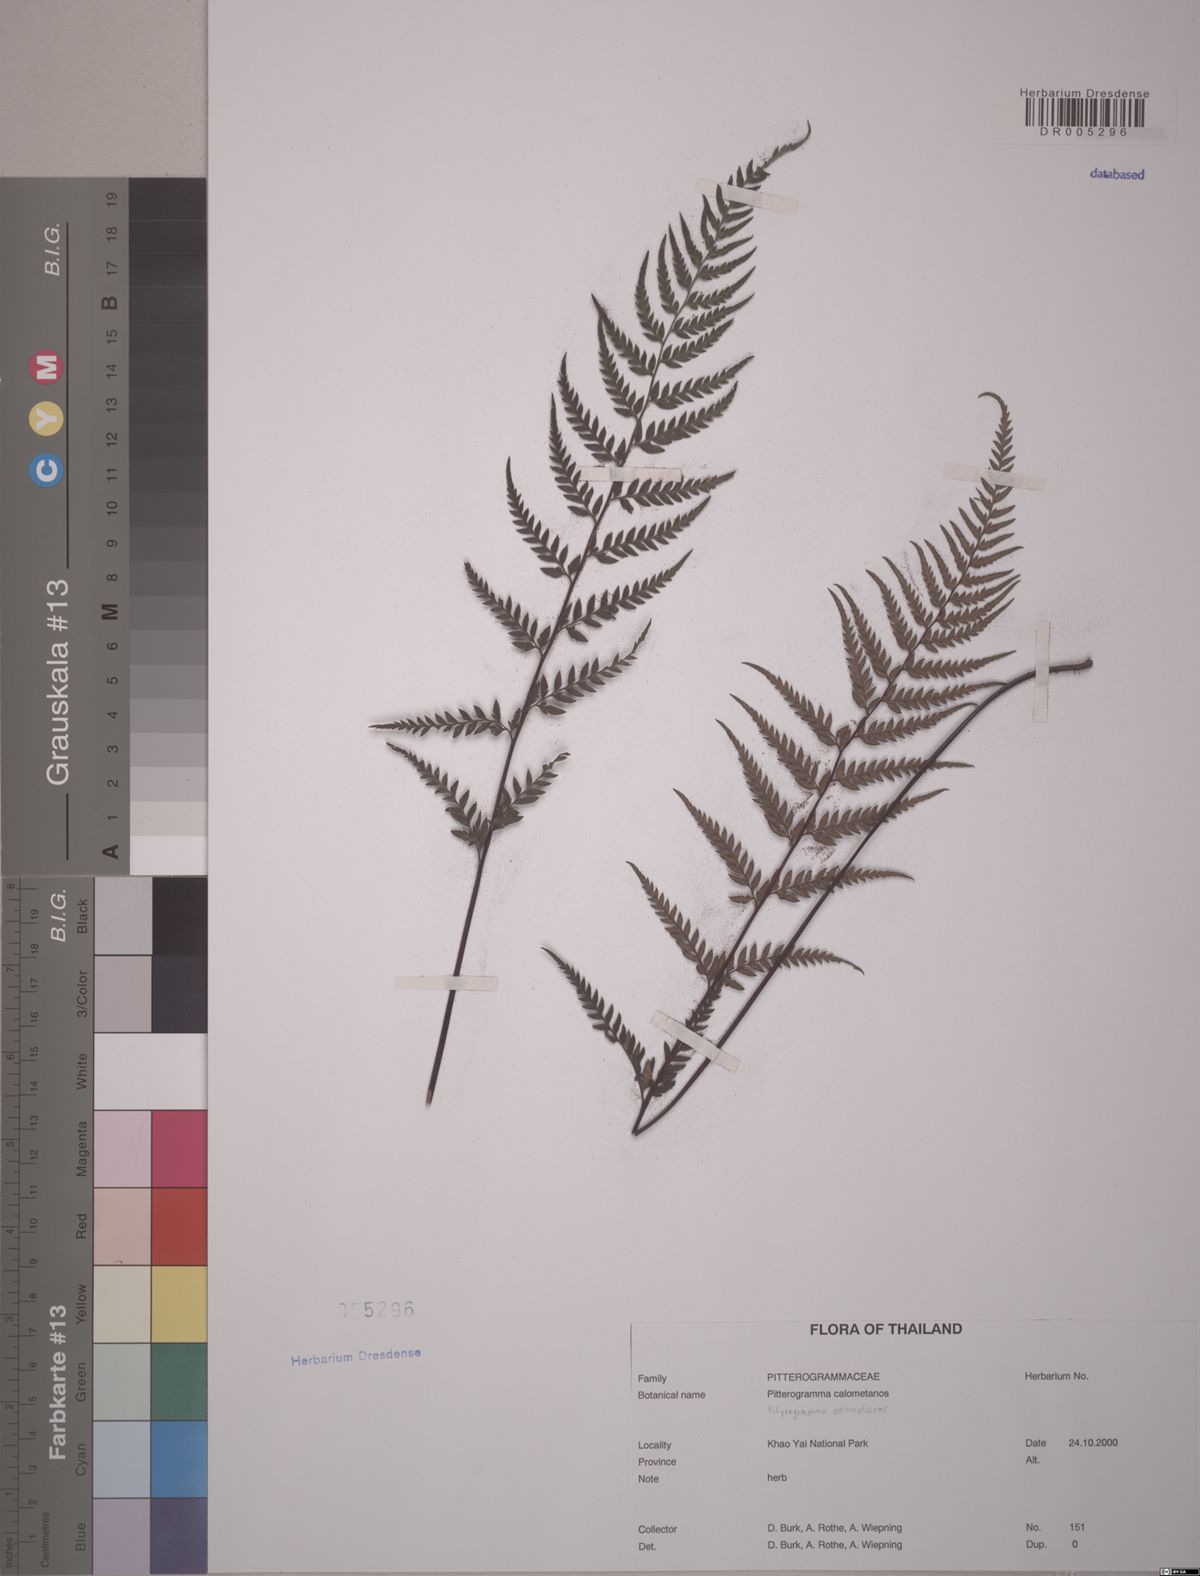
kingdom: Plantae
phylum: Tracheophyta
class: Polypodiopsida
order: Polypodiales
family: Pteridaceae
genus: Pityrogramma
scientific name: Pityrogramma calomelanos
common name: Dixie silverback fern
